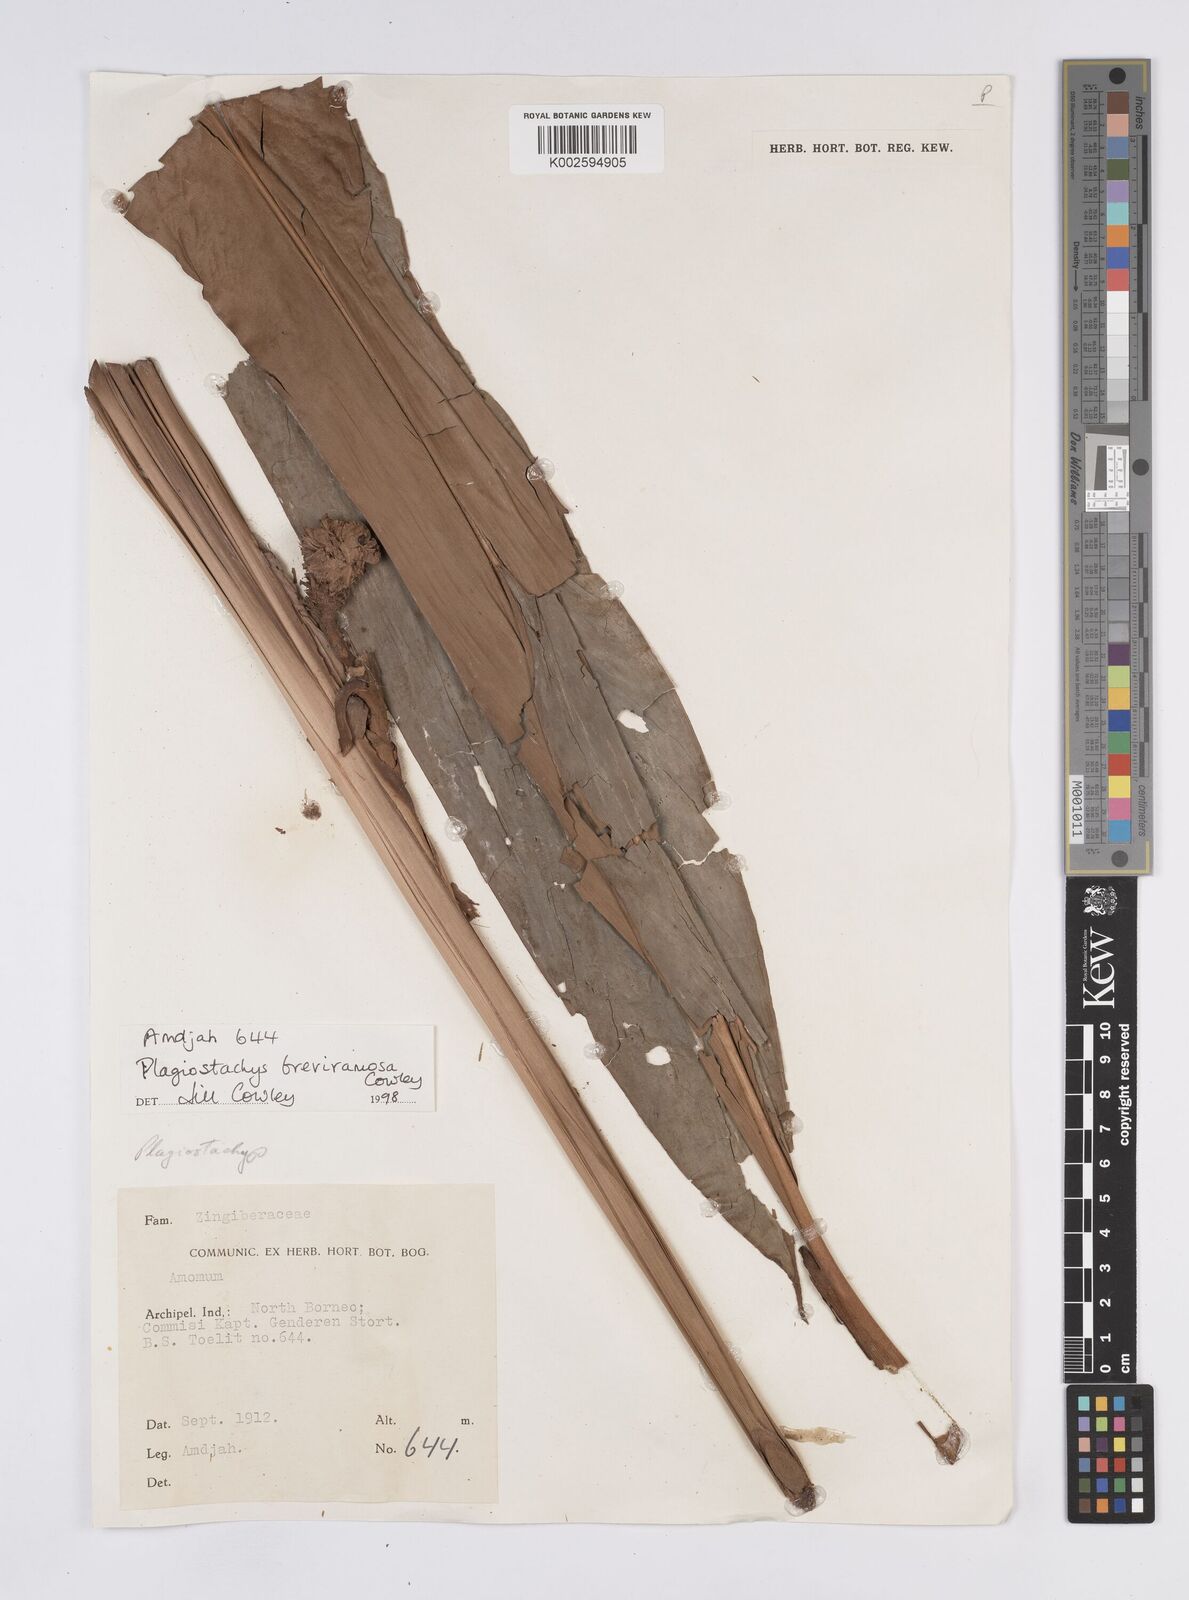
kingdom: Plantae
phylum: Tracheophyta
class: Liliopsida
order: Zingiberales
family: Zingiberaceae
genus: Plagiostachys
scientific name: Plagiostachys breviramosa
